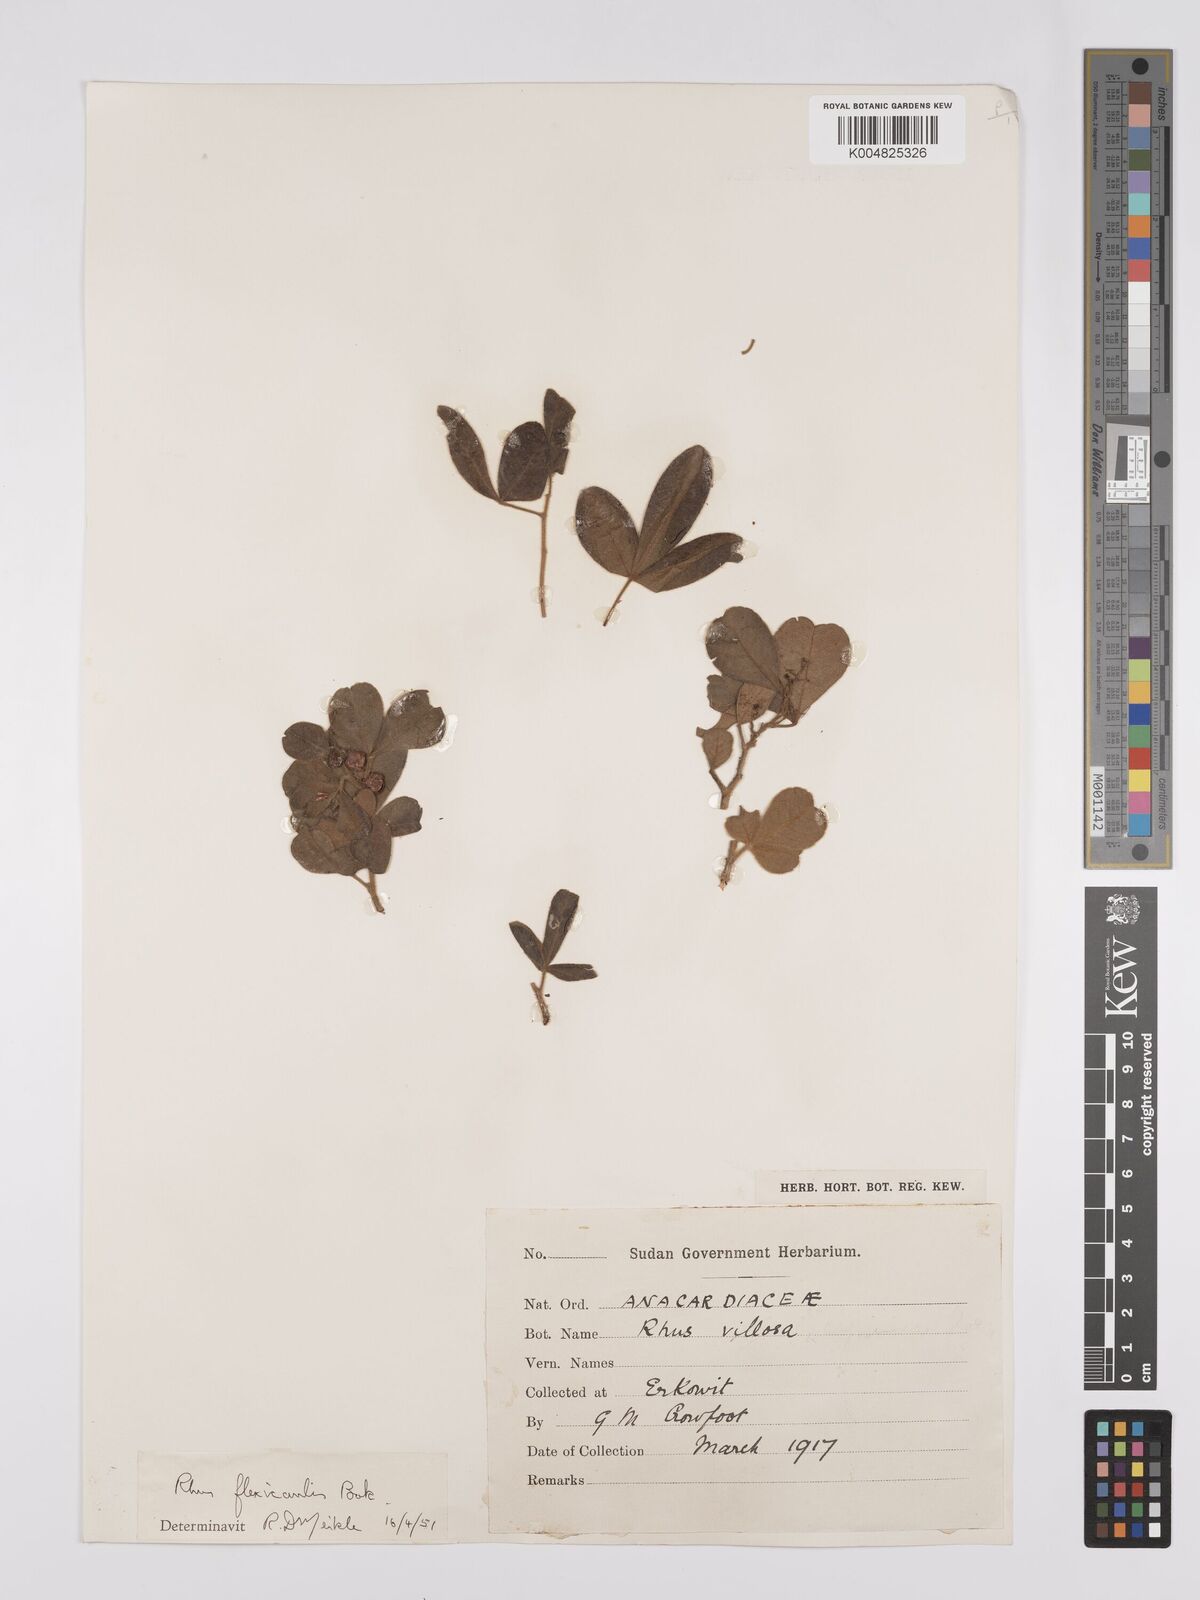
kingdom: Plantae
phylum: Tracheophyta
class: Magnoliopsida
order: Sapindales
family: Anacardiaceae
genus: Searsia
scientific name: Searsia flexicaulis
